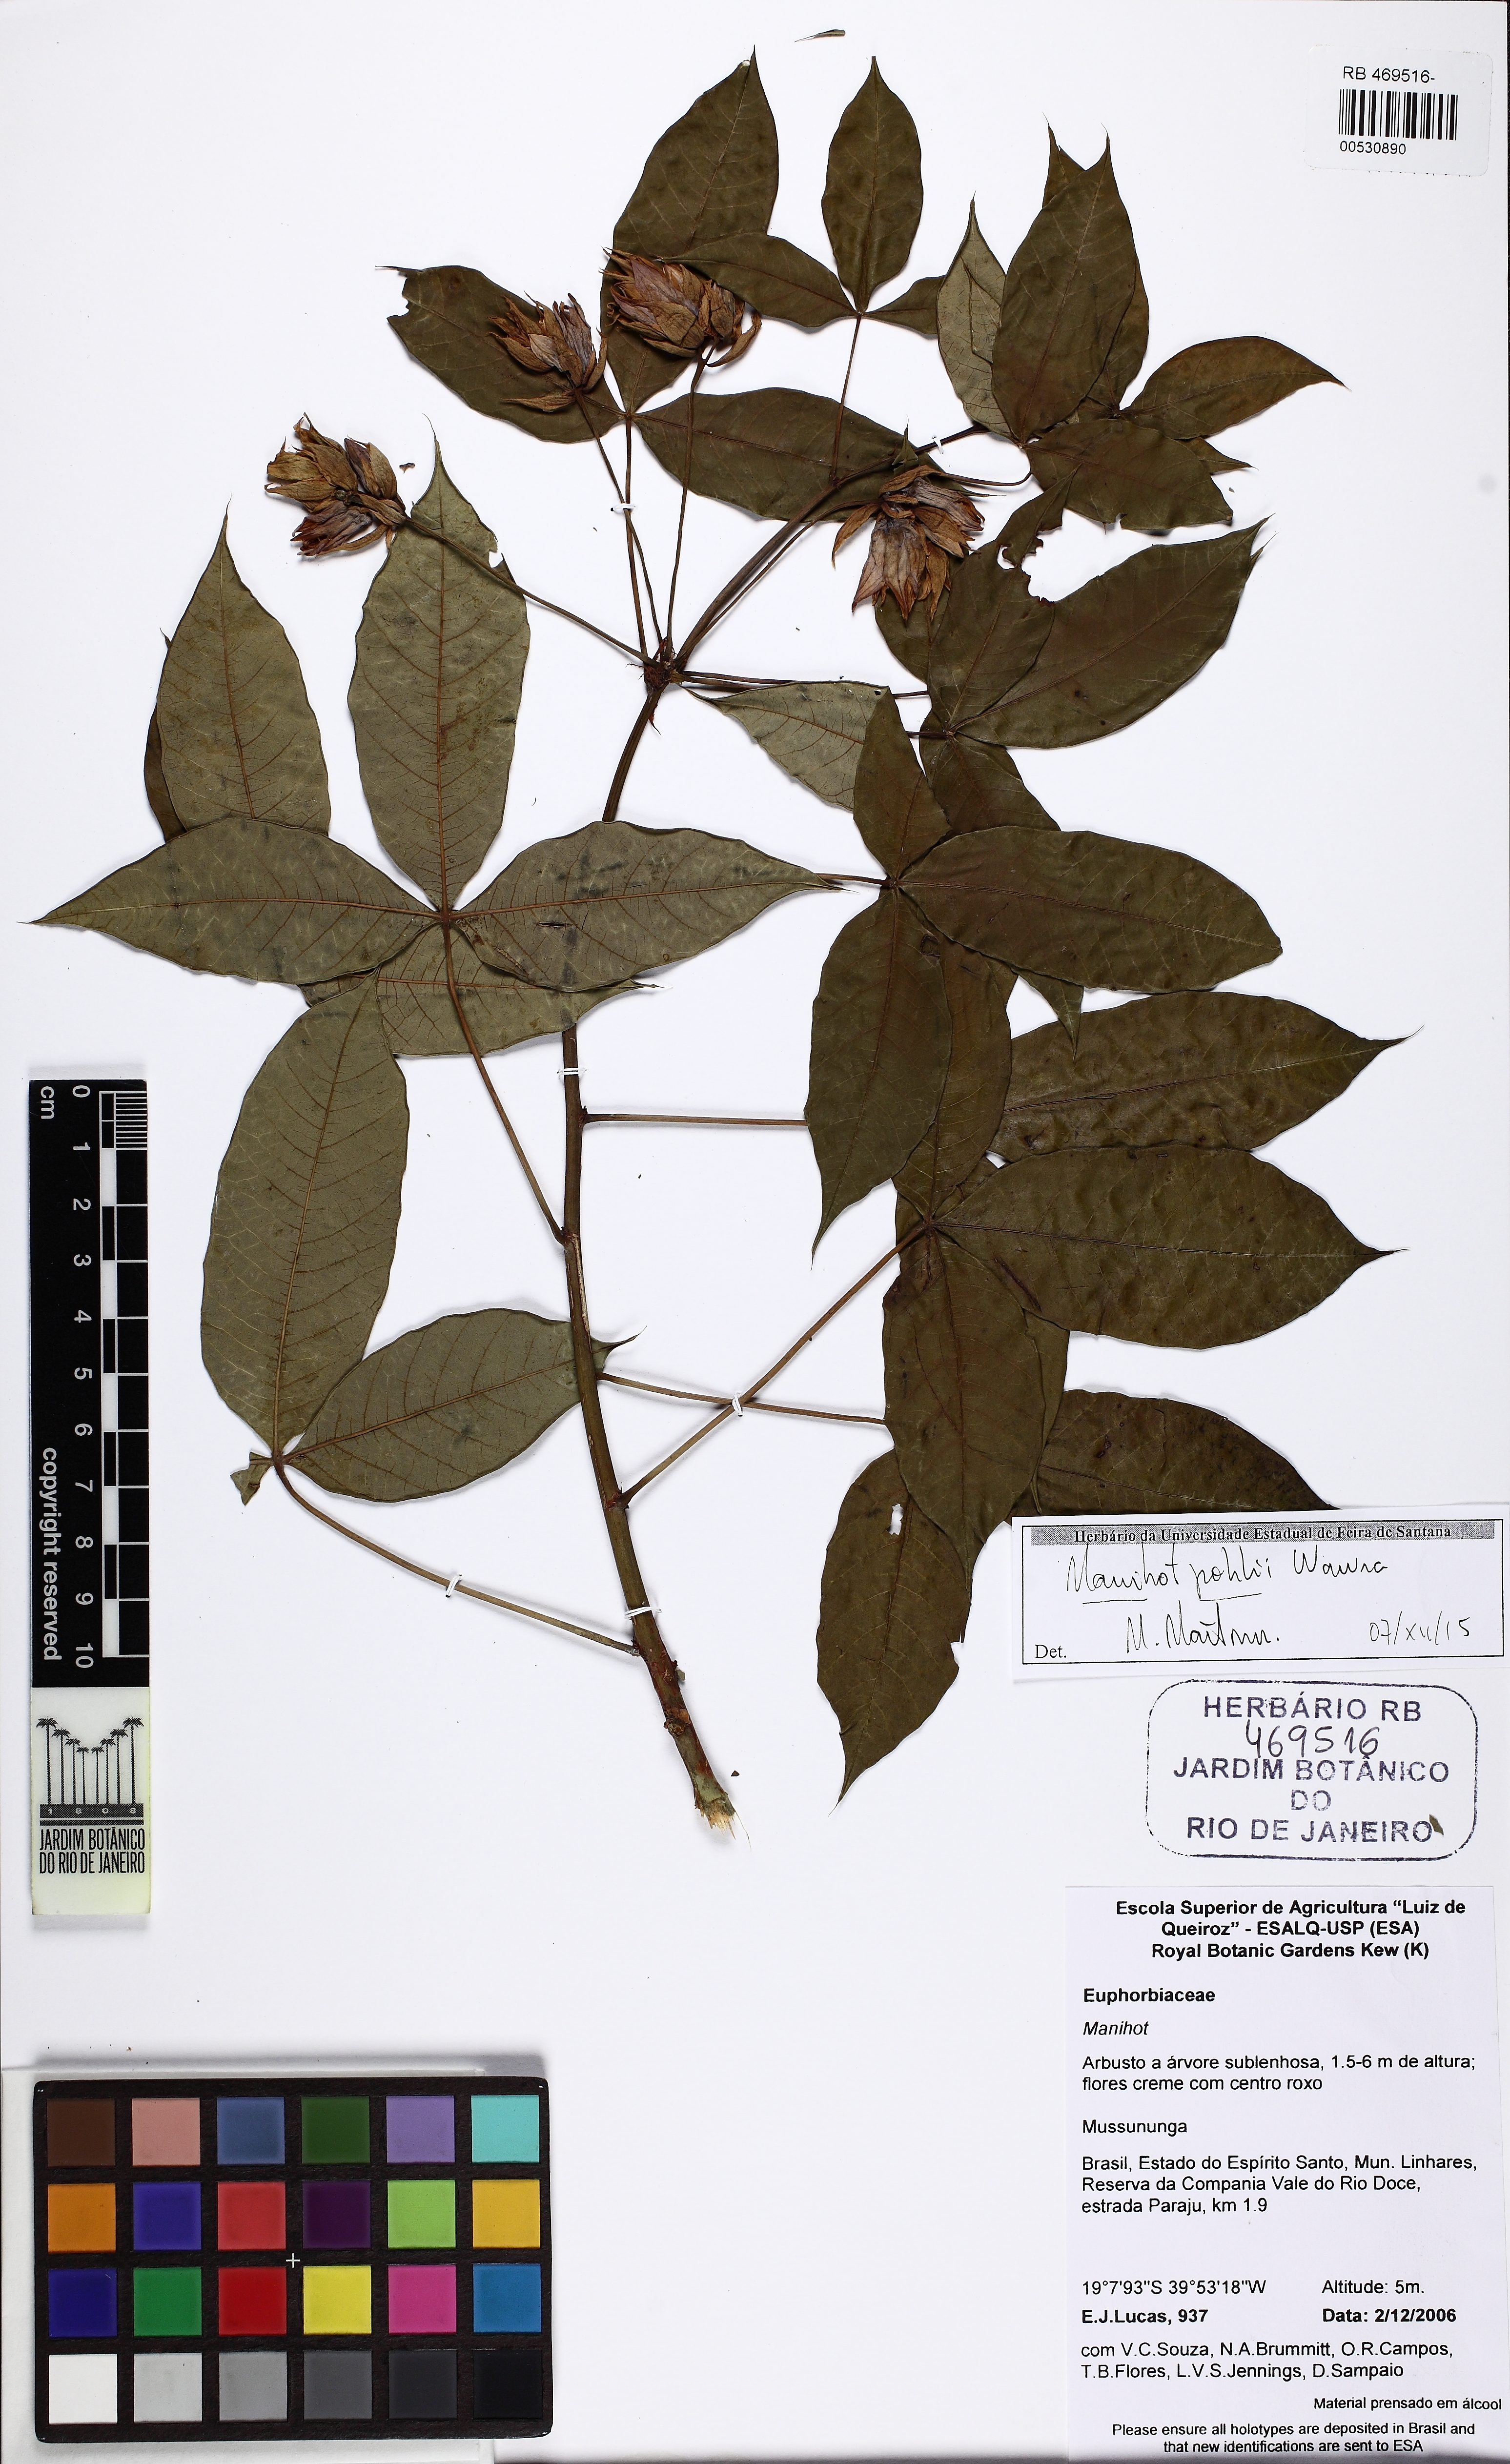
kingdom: Plantae
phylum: Tracheophyta
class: Magnoliopsida
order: Malpighiales
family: Euphorbiaceae
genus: Manihot
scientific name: Manihot pohlii
